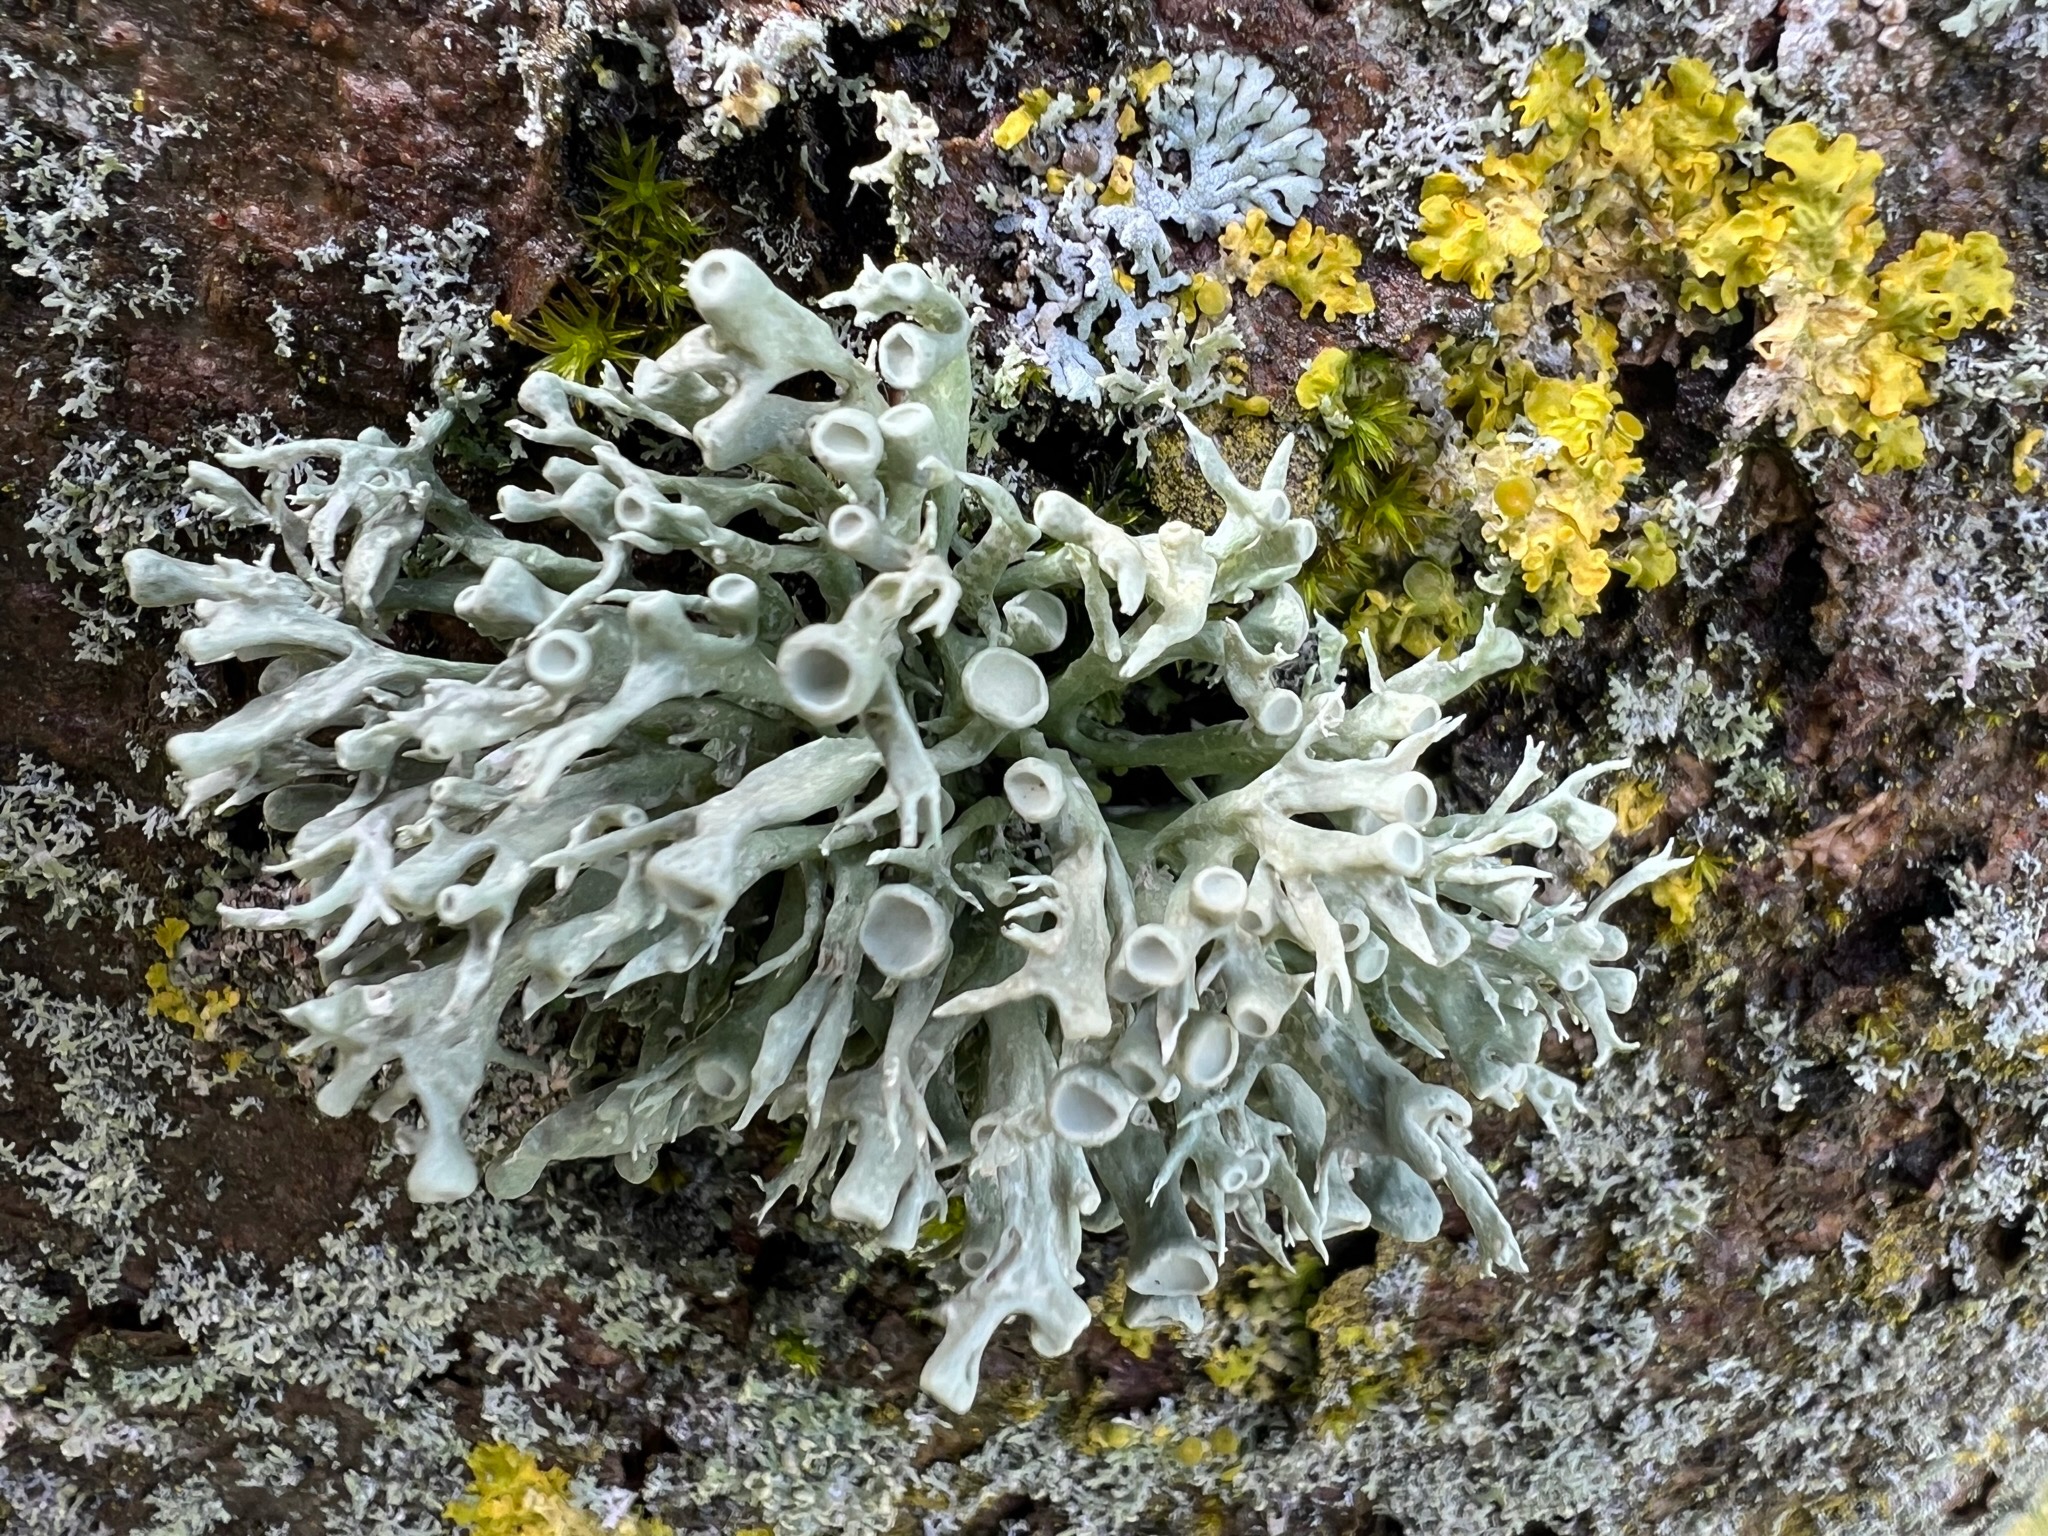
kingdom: Fungi
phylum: Ascomycota
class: Lecanoromycetes
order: Lecanorales
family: Ramalinaceae
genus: Ramalina
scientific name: Ramalina fastigiata
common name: Tue-grenlav
